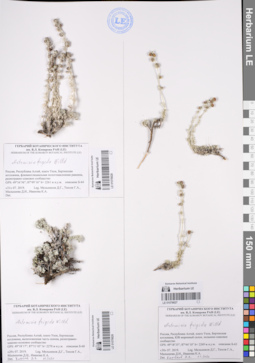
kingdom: Plantae
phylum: Tracheophyta
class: Magnoliopsida
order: Asterales
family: Asteraceae
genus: Artemisia
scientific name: Artemisia frigida
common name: Prairie sagewort
